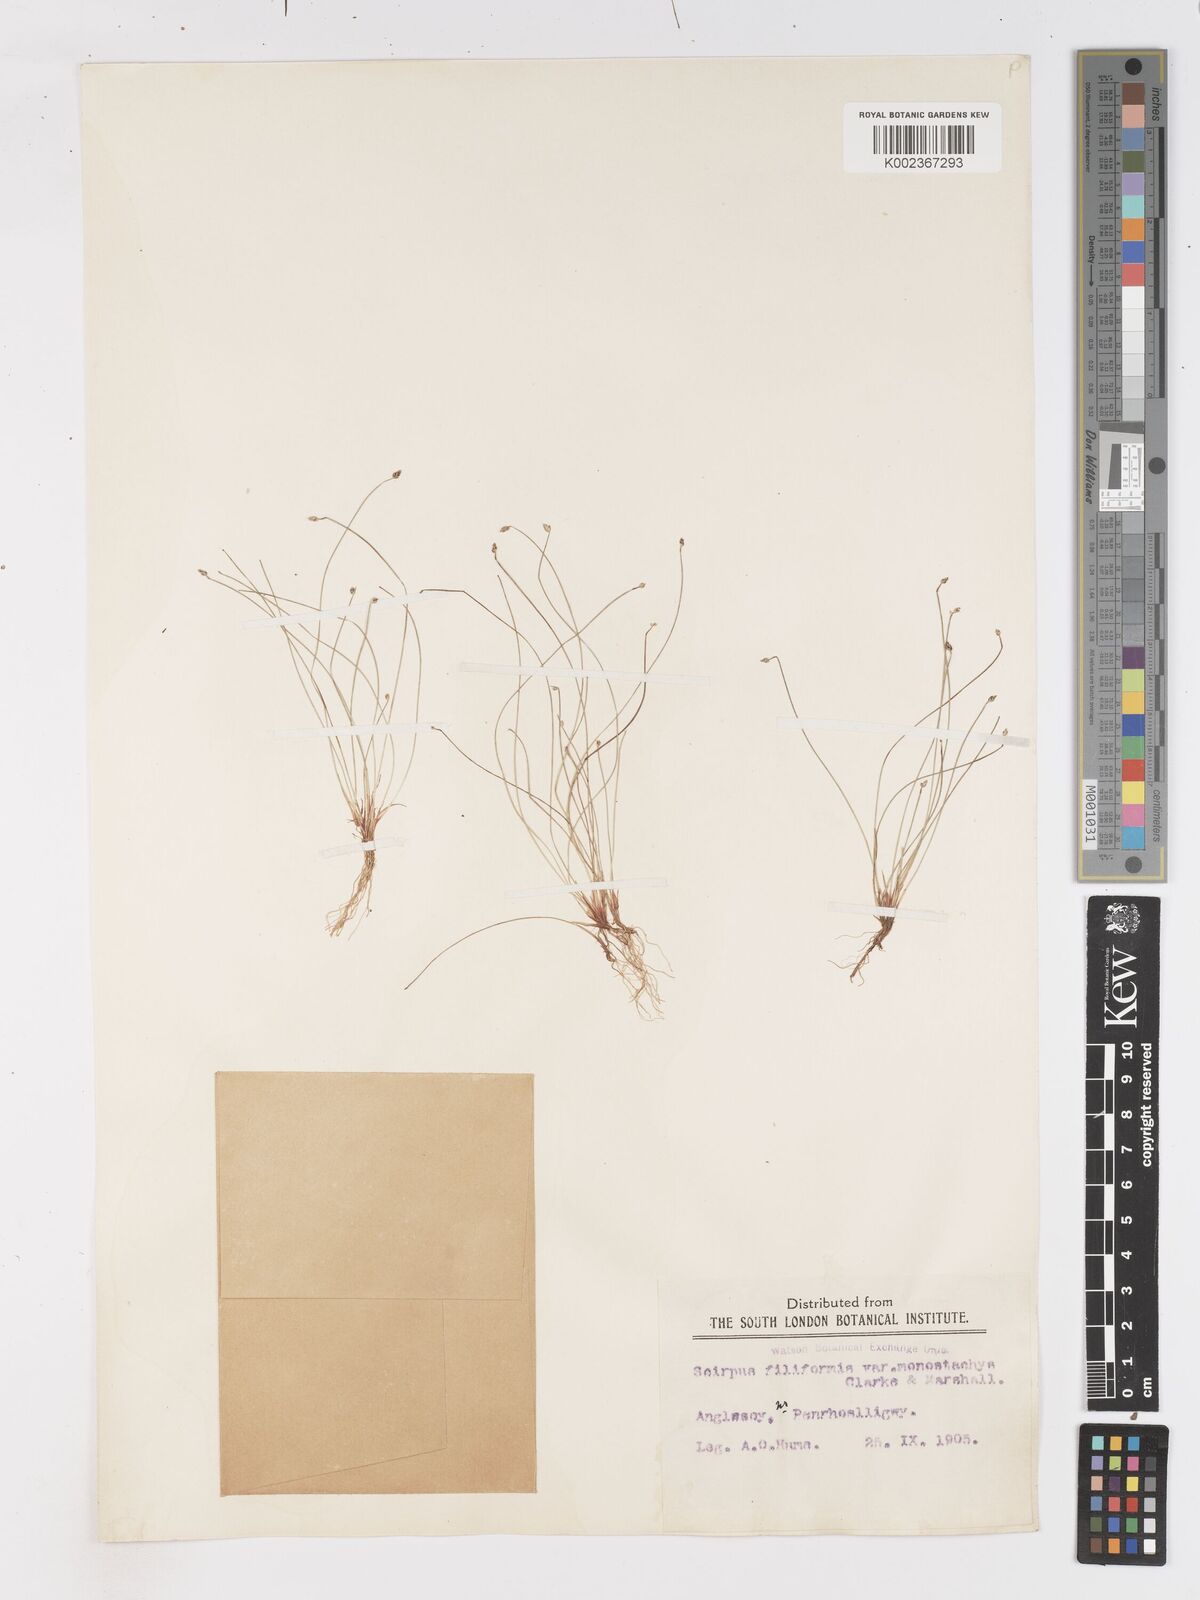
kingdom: Plantae
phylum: Tracheophyta
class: Liliopsida
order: Poales
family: Cyperaceae
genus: Isolepis
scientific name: Isolepis cernua
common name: Slender club-rush
